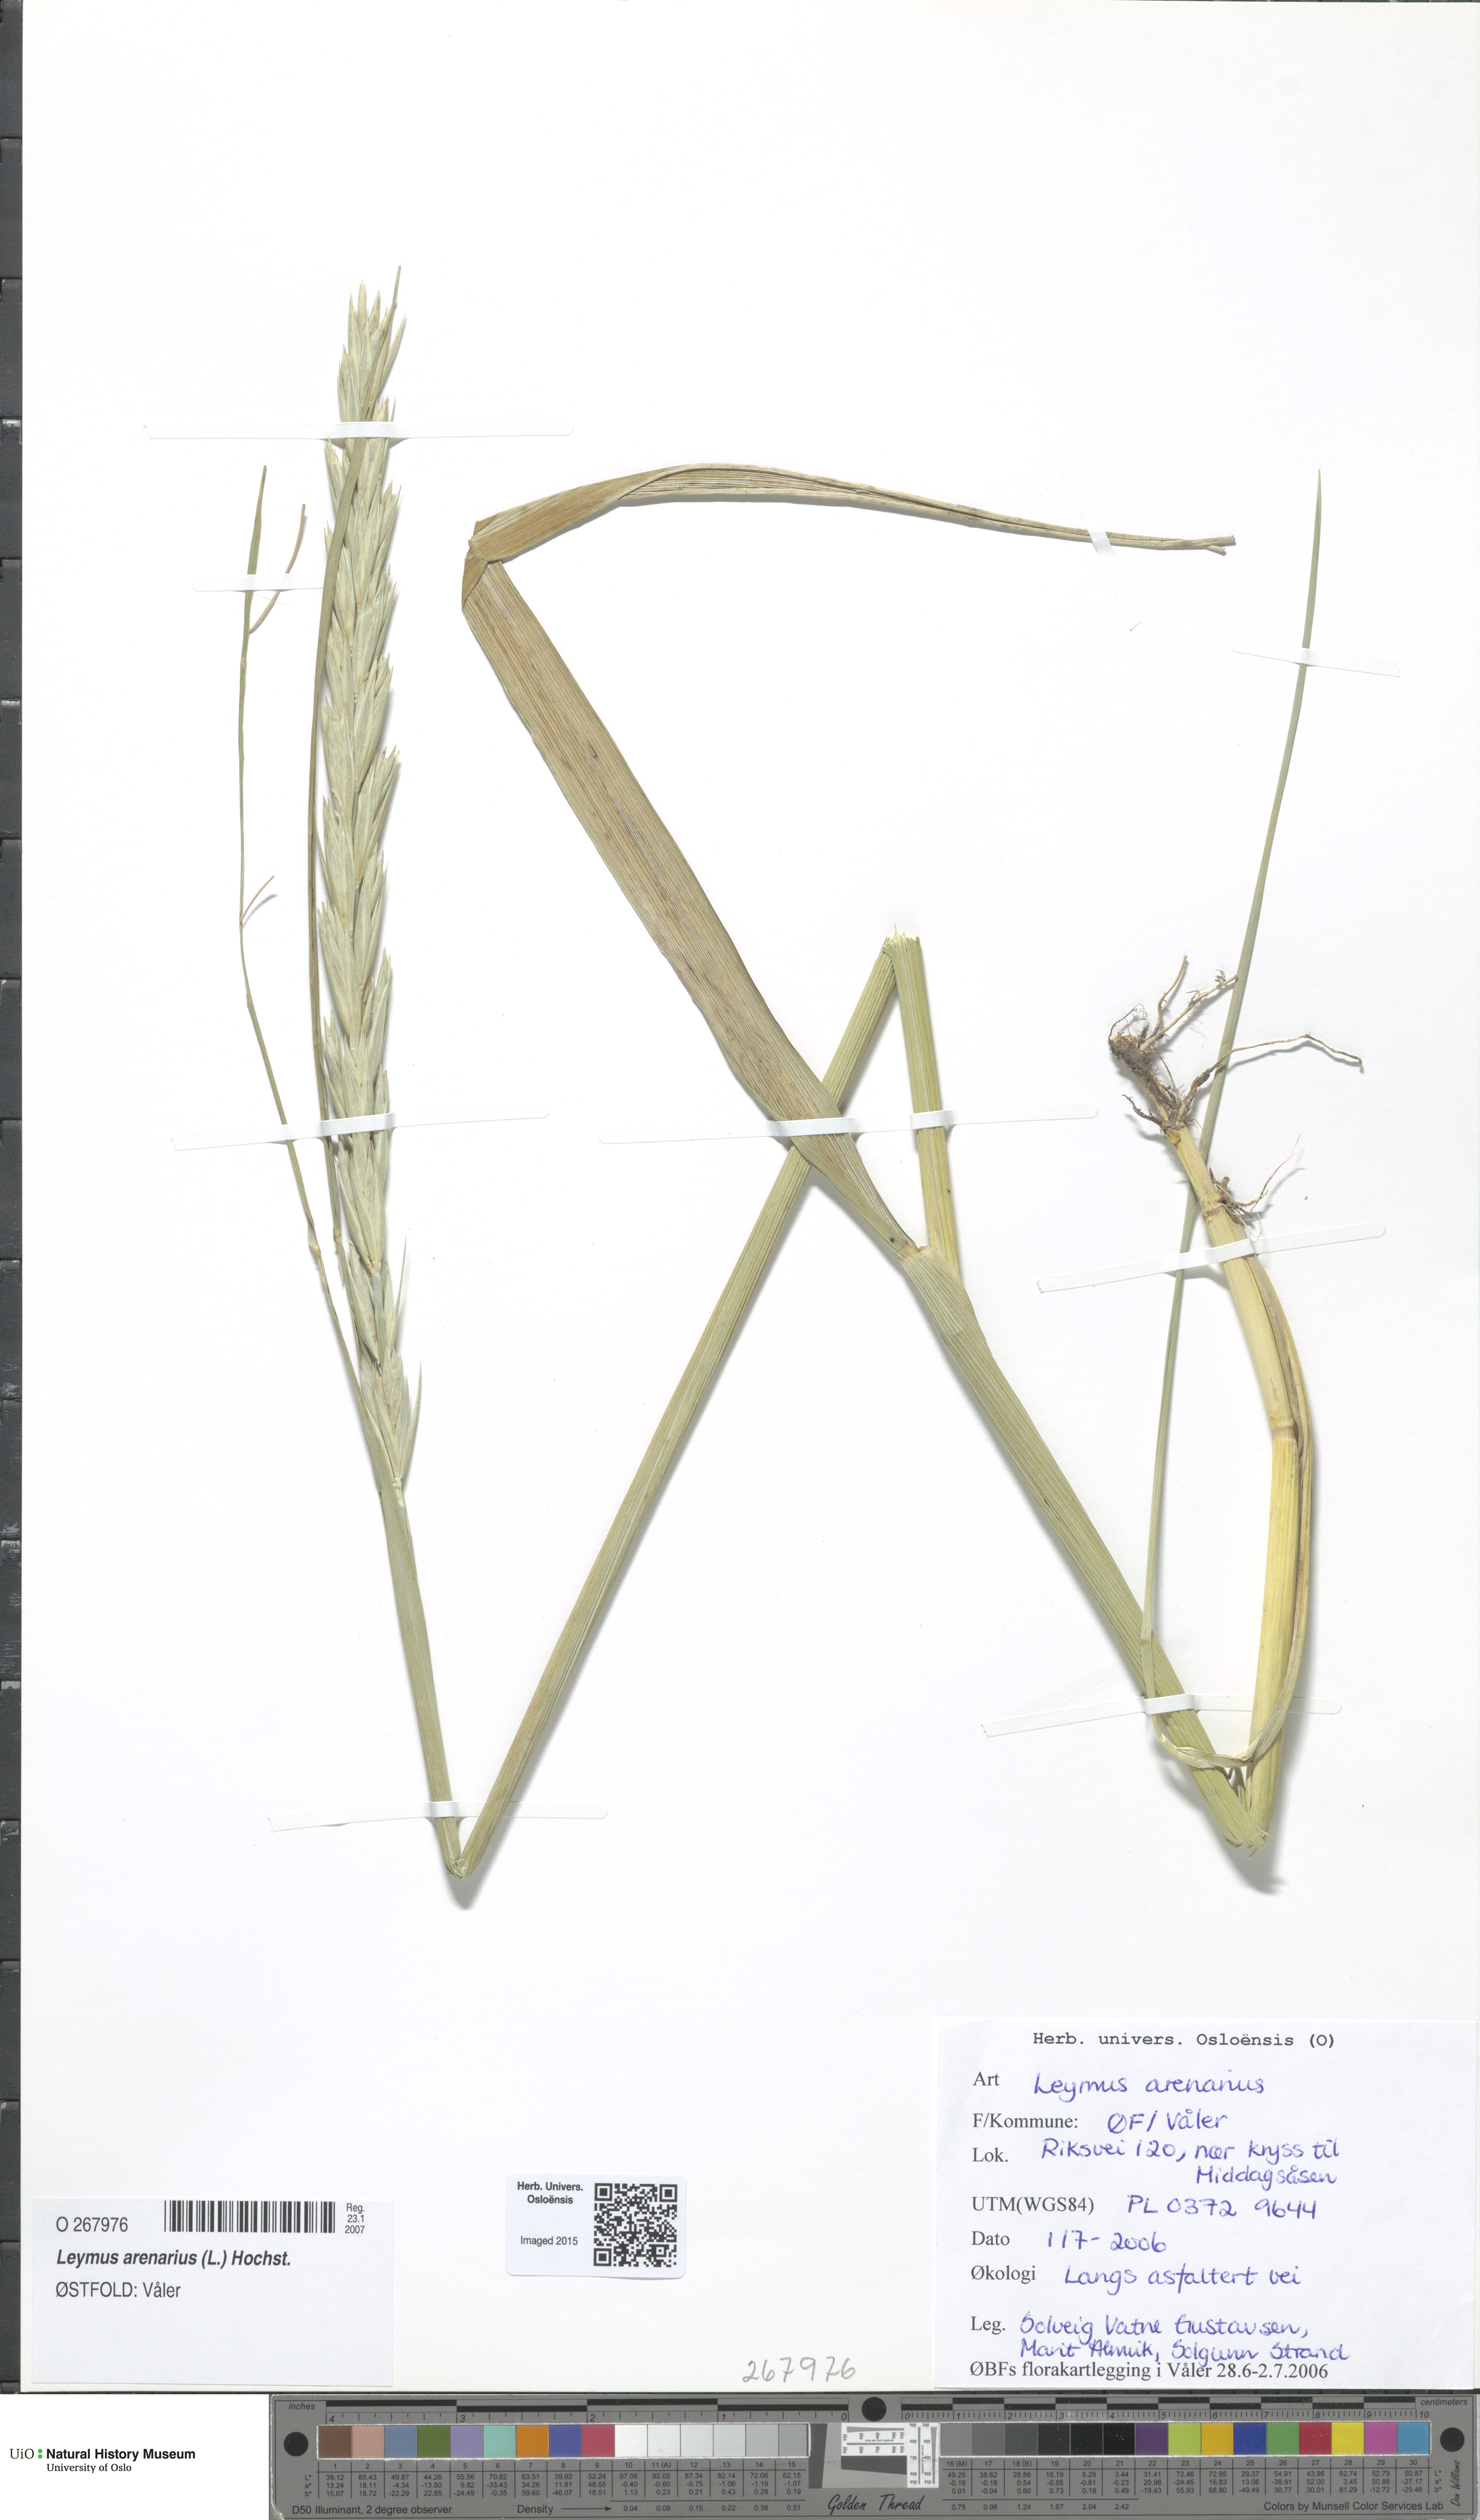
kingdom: Plantae
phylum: Tracheophyta
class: Liliopsida
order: Poales
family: Poaceae
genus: Leymus
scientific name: Leymus arenarius
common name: Lyme-grass
